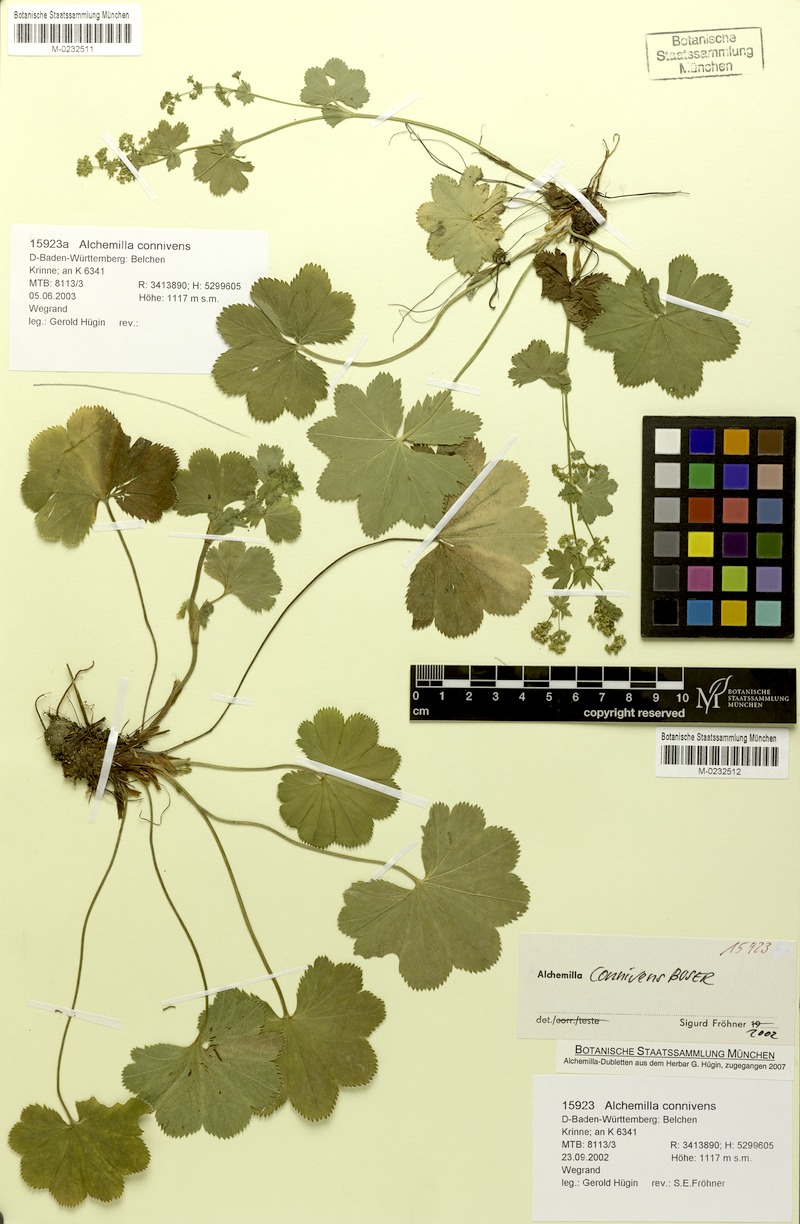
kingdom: Plantae
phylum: Tracheophyta
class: Magnoliopsida
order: Rosales
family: Rosaceae
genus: Alchemilla
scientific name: Alchemilla connivens
